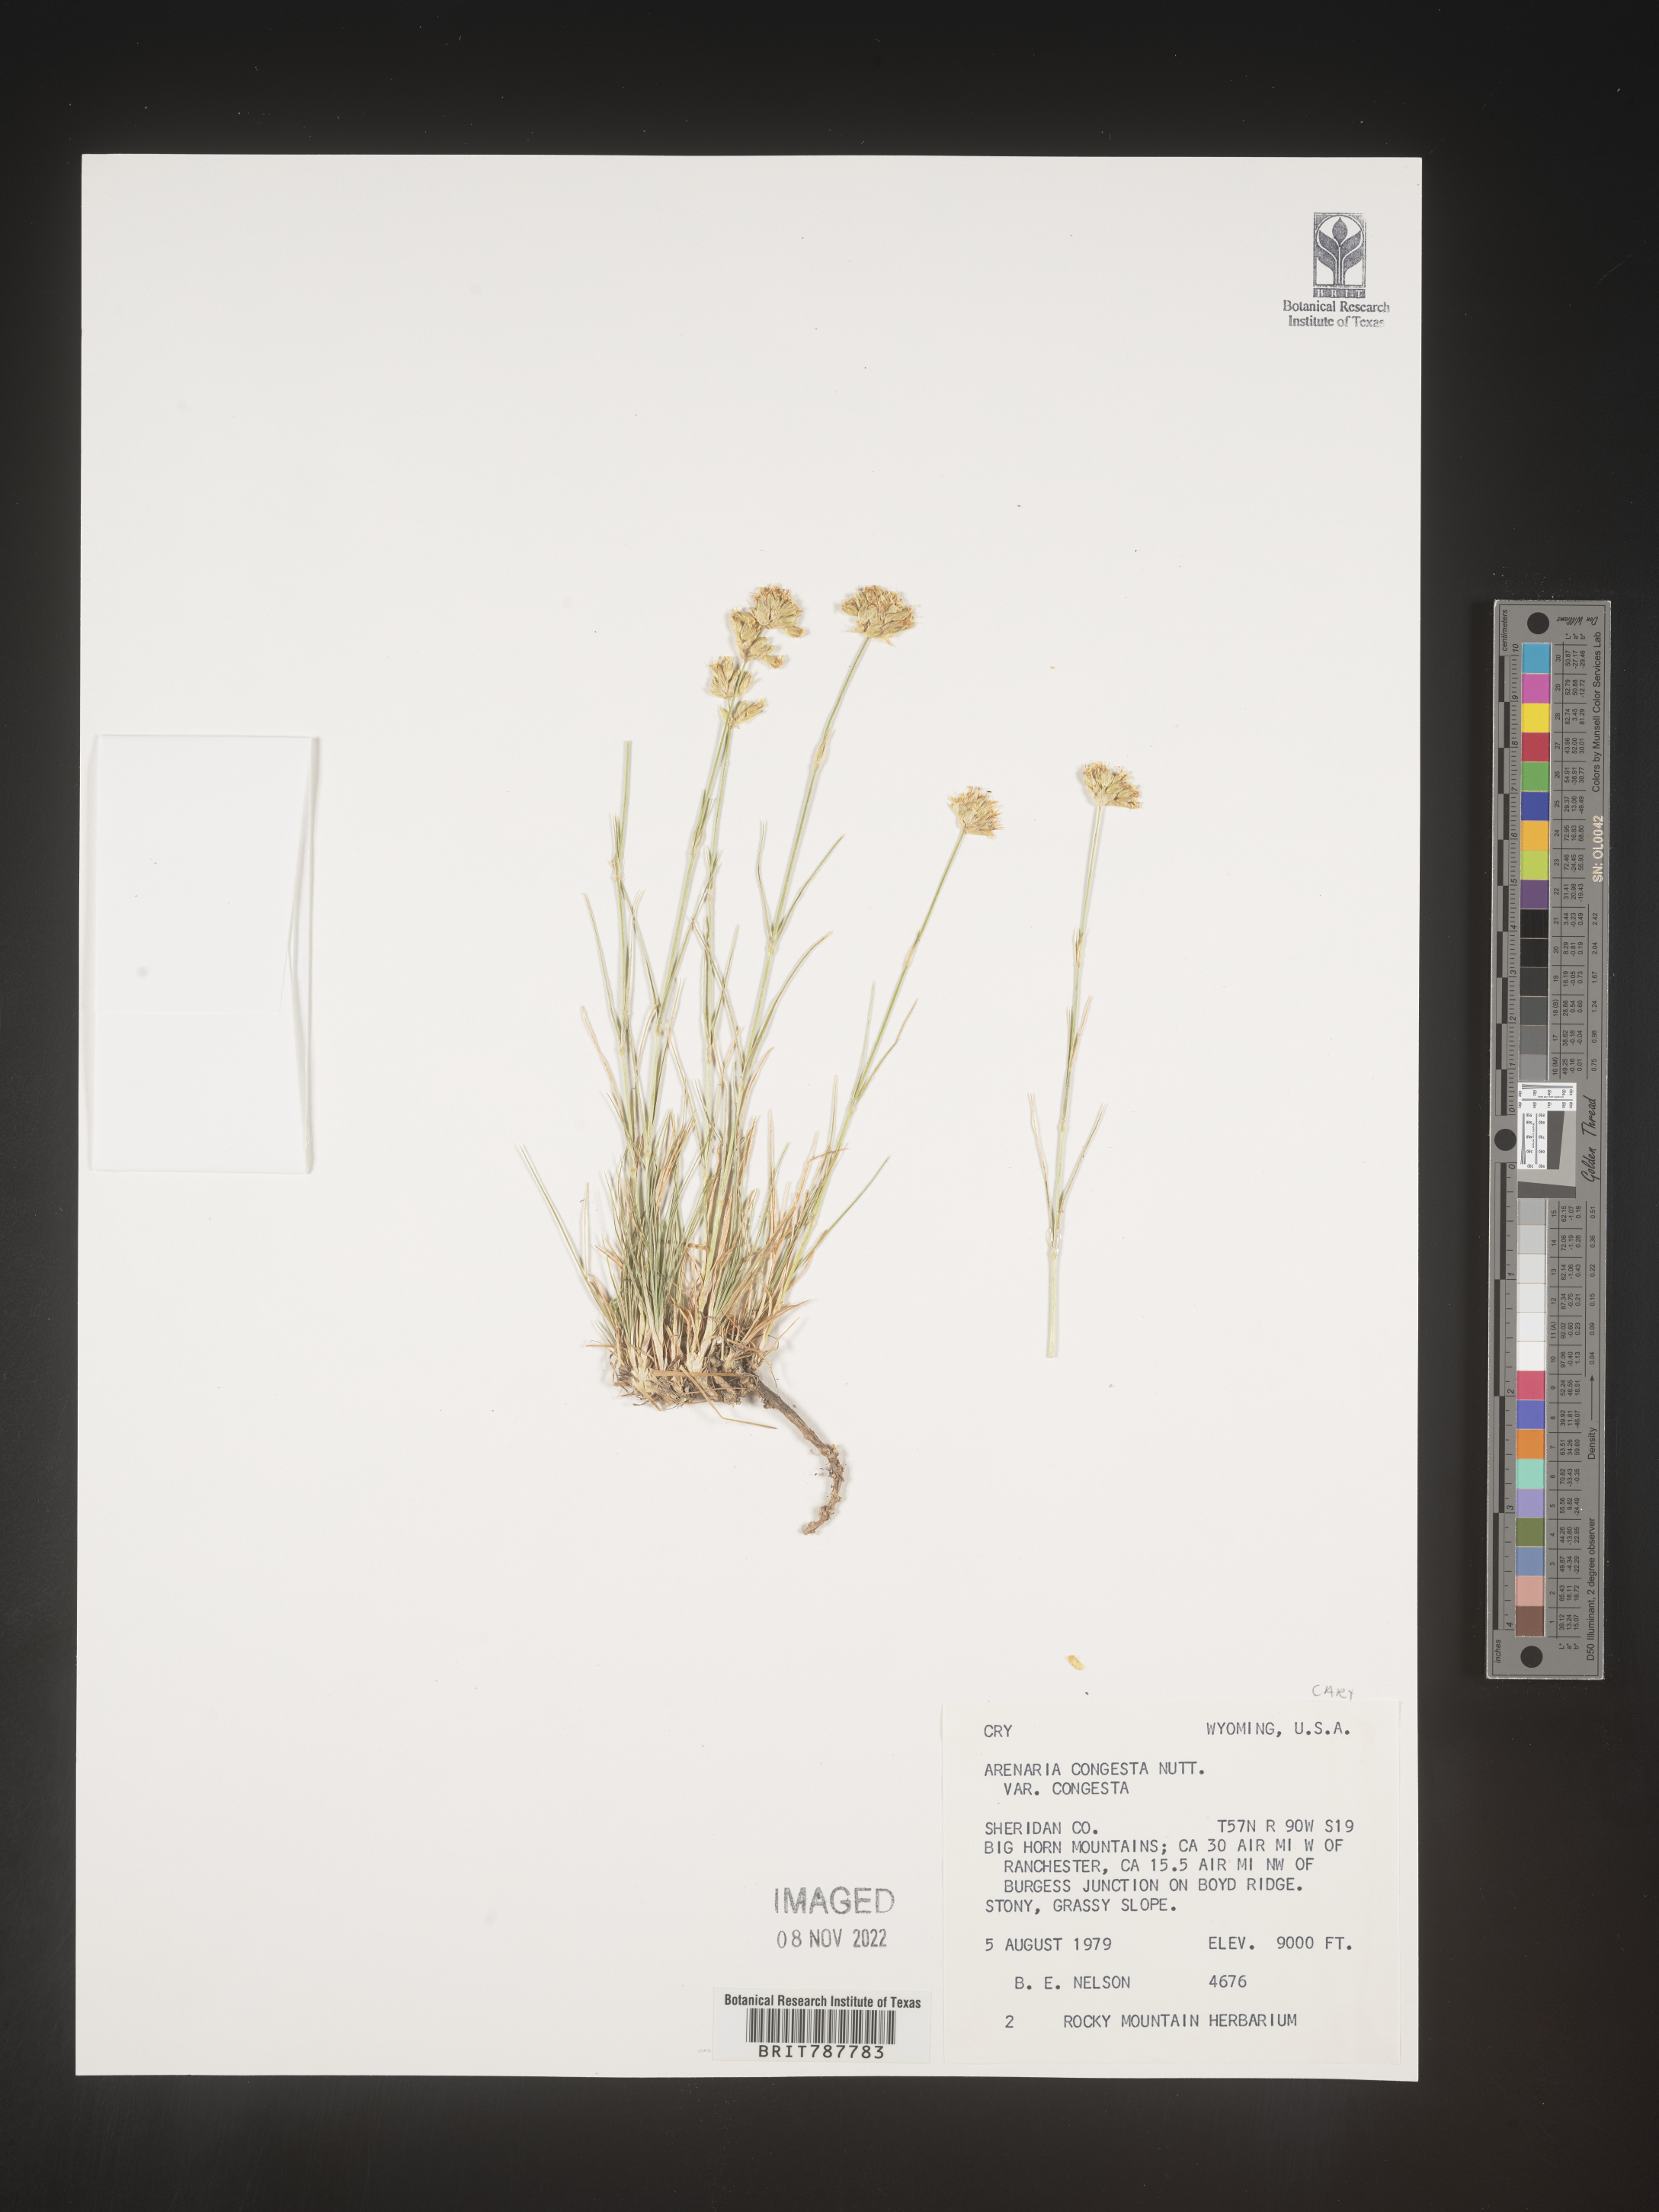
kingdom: Plantae
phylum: Tracheophyta
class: Magnoliopsida
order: Caryophyllales
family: Caryophyllaceae
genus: Eremogone
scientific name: Eremogone congesta
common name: Ballhead sandwort
